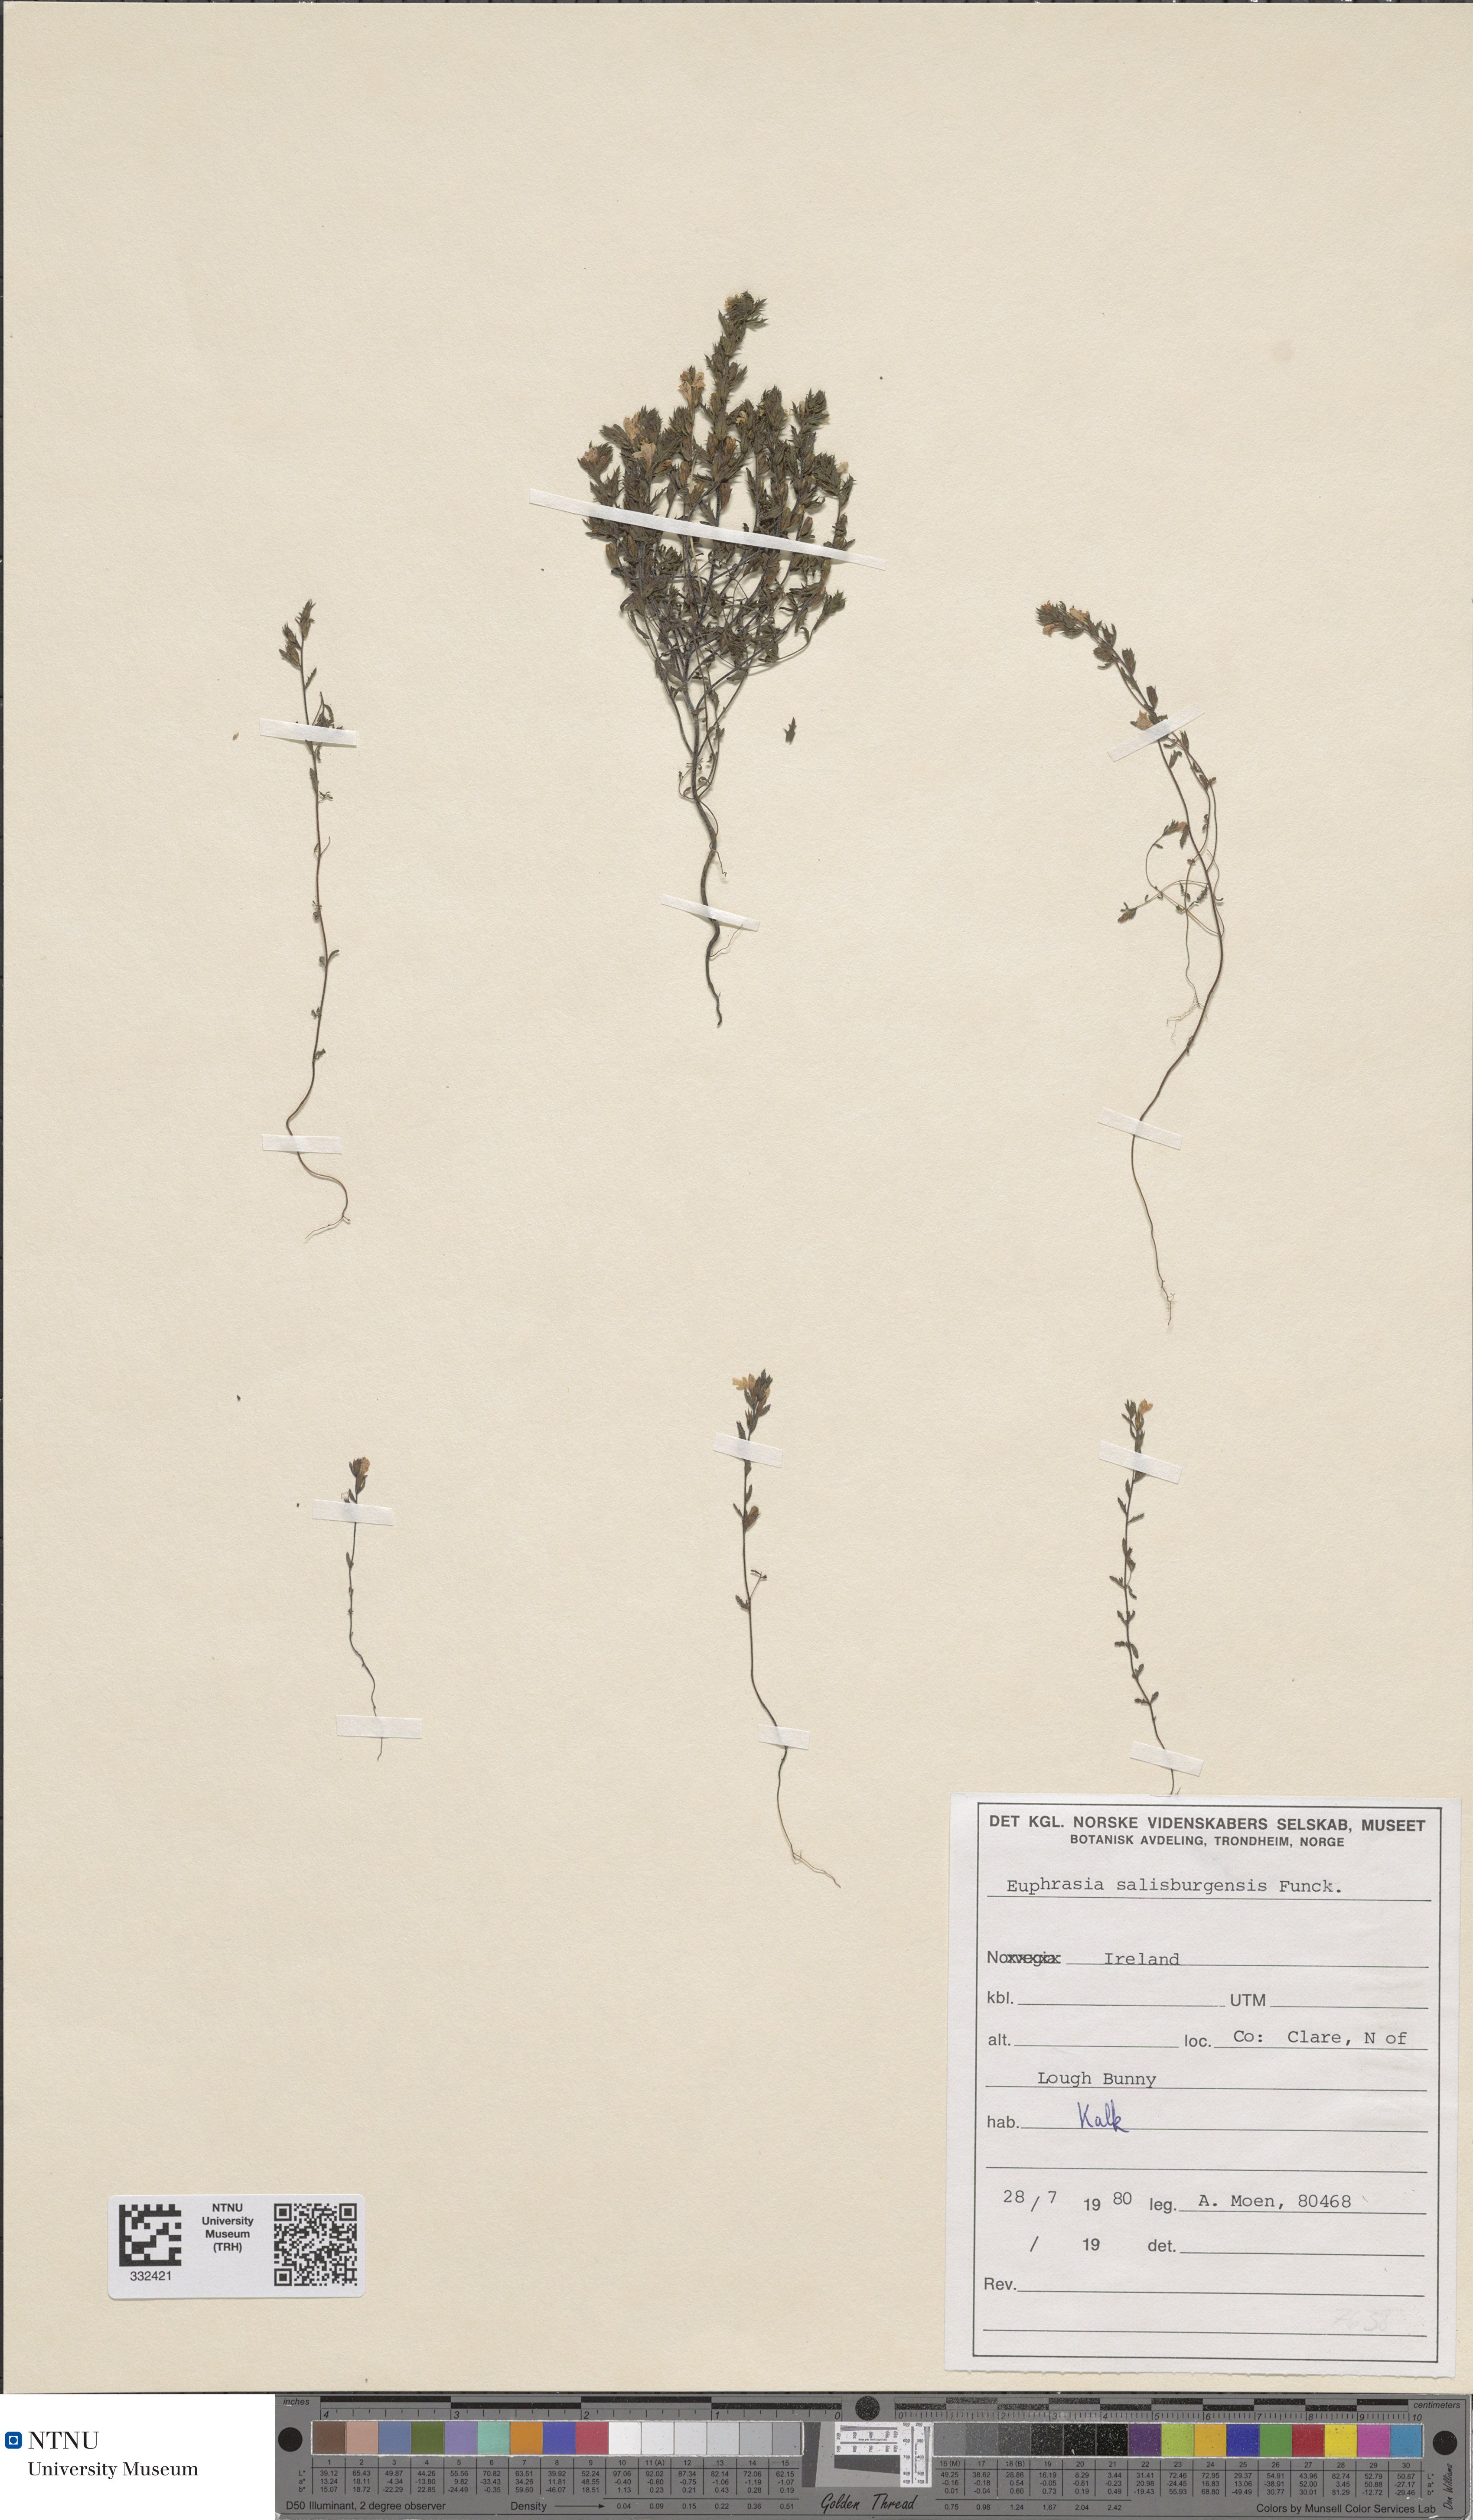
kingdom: Plantae
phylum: Tracheophyta
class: Magnoliopsida
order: Lamiales
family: Orobanchaceae
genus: Euphrasia
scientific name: Euphrasia salisburgensis
